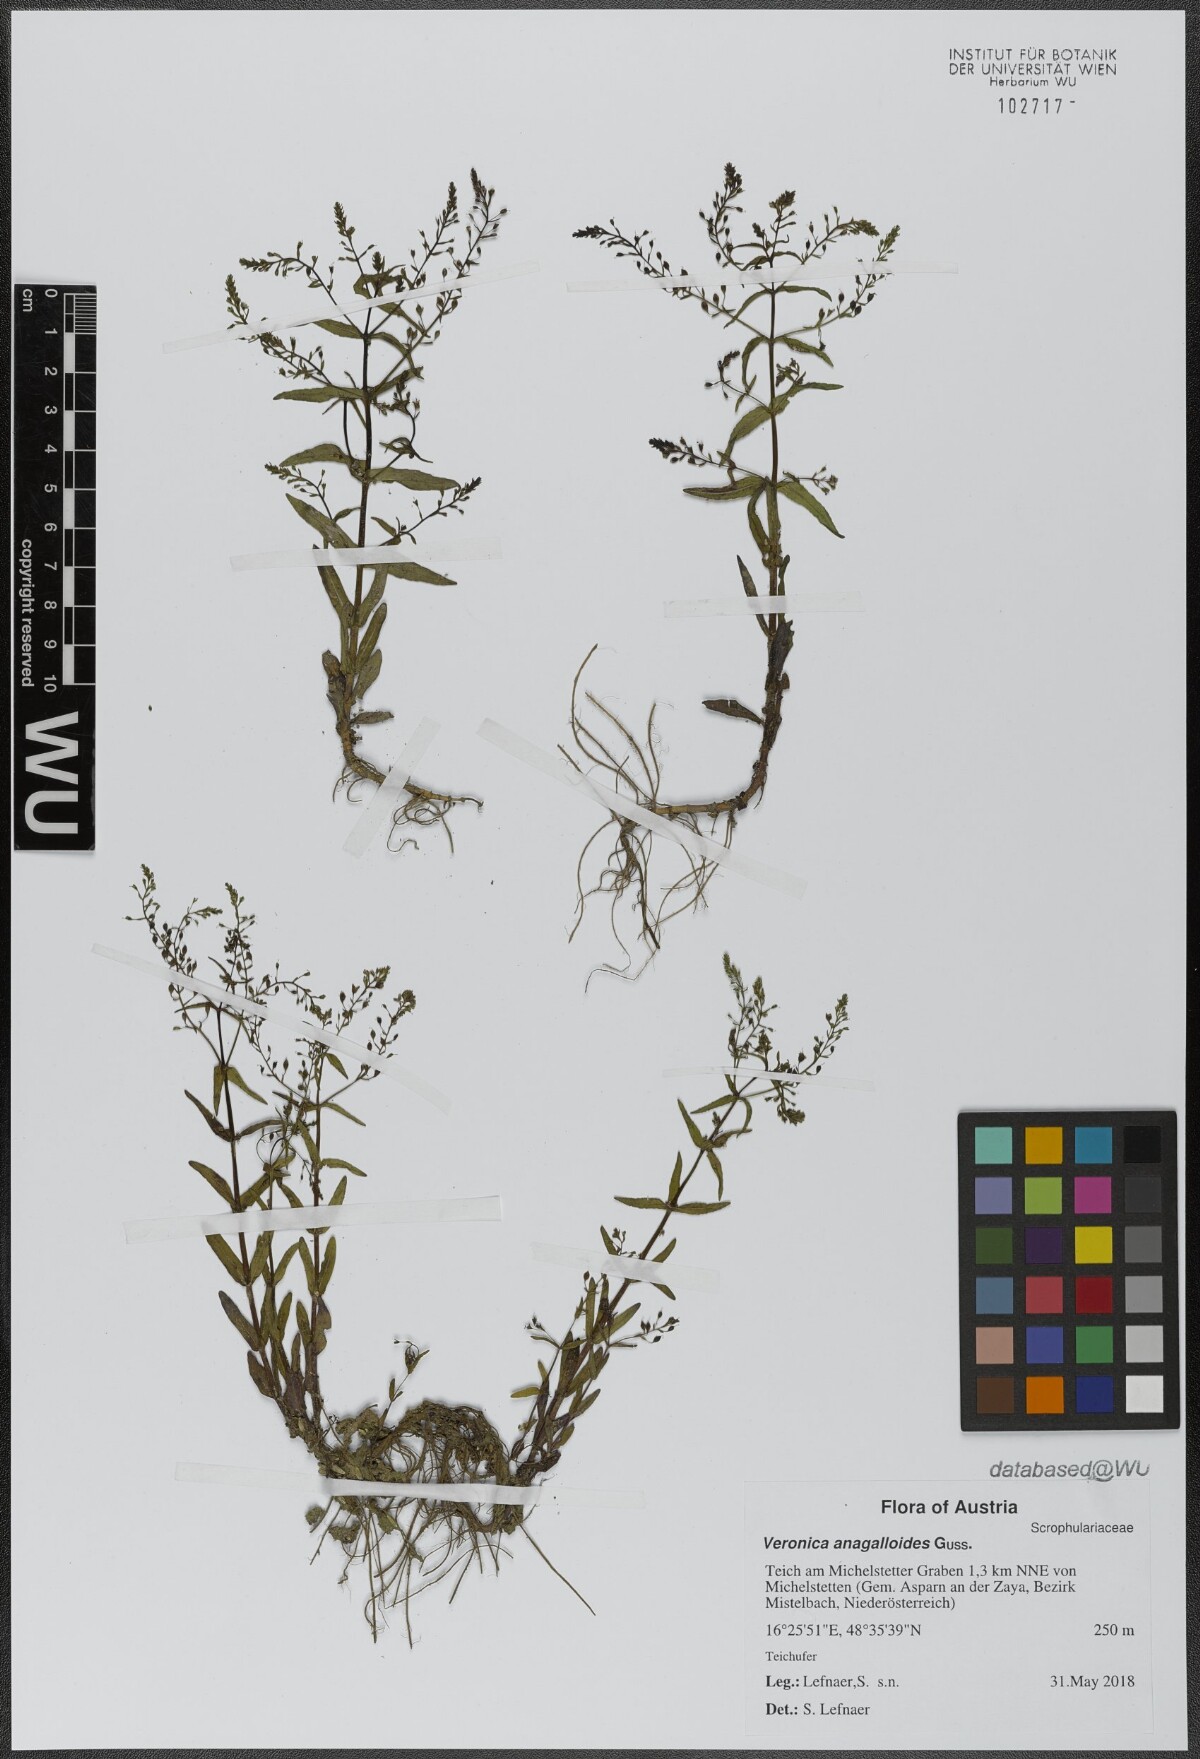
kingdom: Plantae
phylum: Tracheophyta
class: Magnoliopsida
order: Lamiales
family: Plantaginaceae
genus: Veronica
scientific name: Veronica anagalloides
